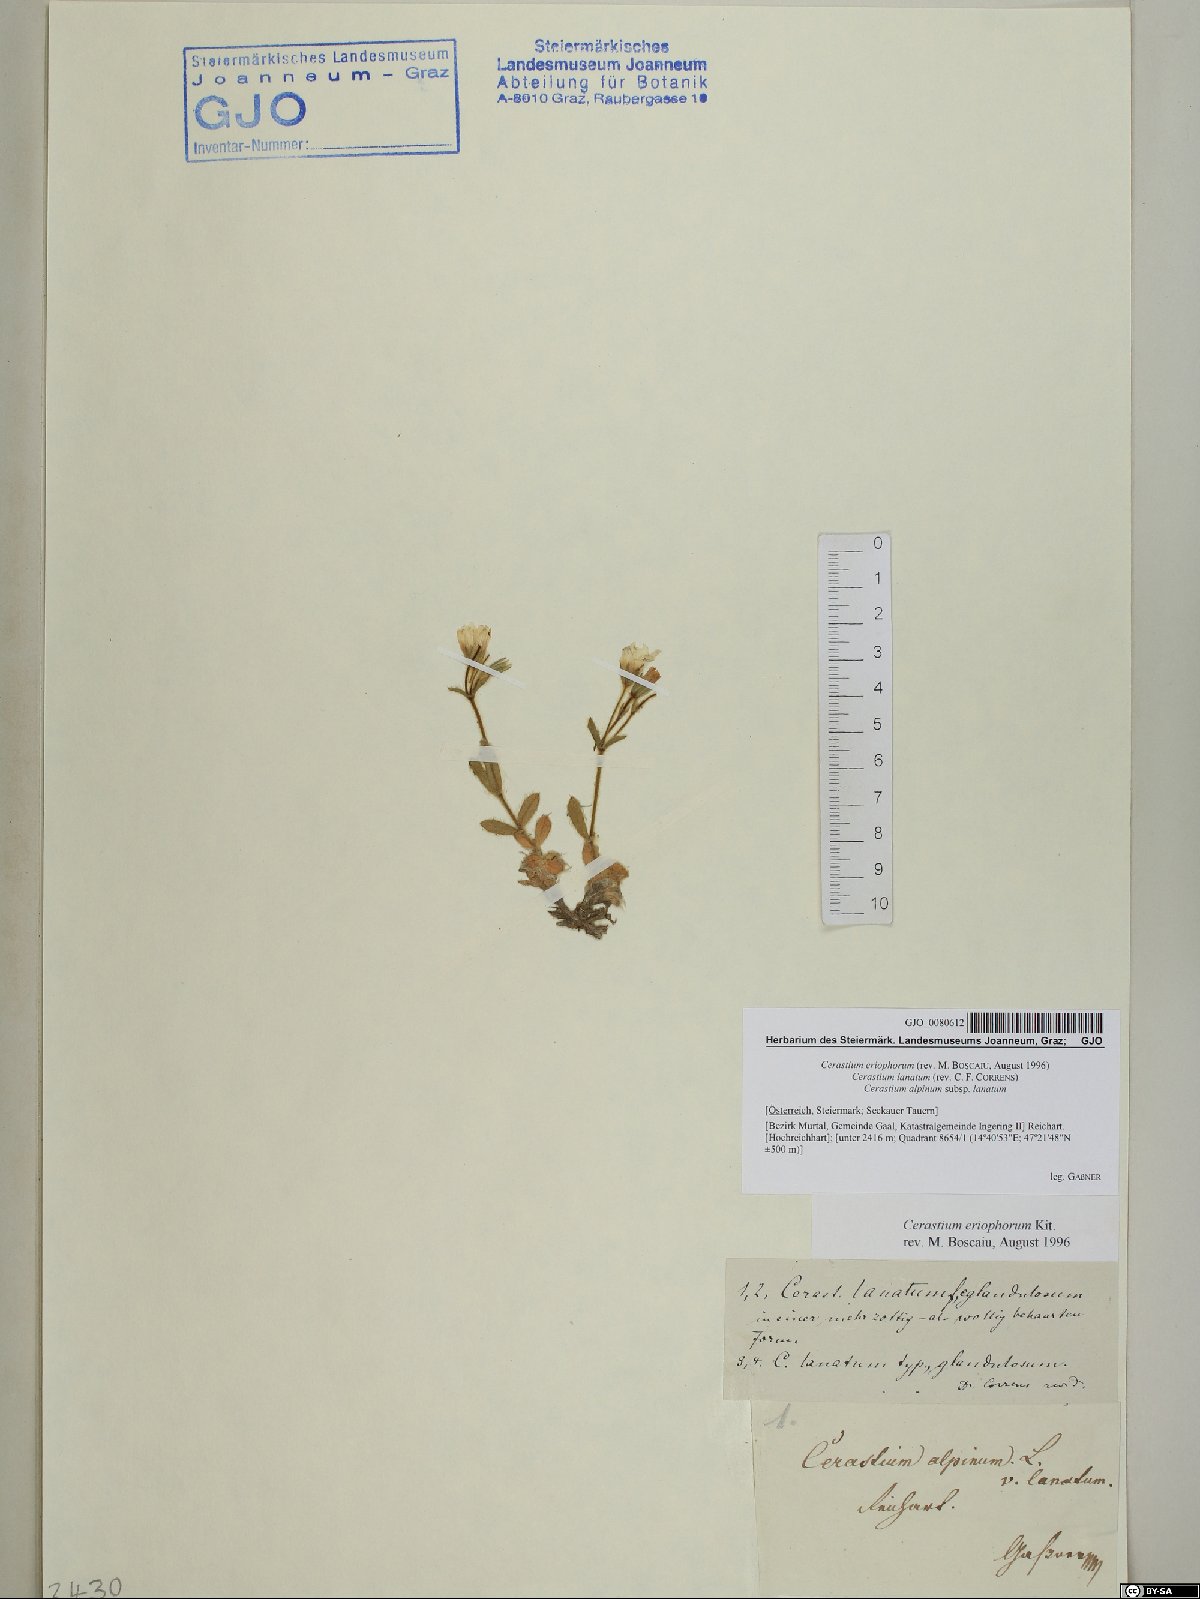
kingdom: Plantae
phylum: Tracheophyta
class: Magnoliopsida
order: Caryophyllales
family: Caryophyllaceae
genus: Cerastium
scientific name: Cerastium eriophorum
